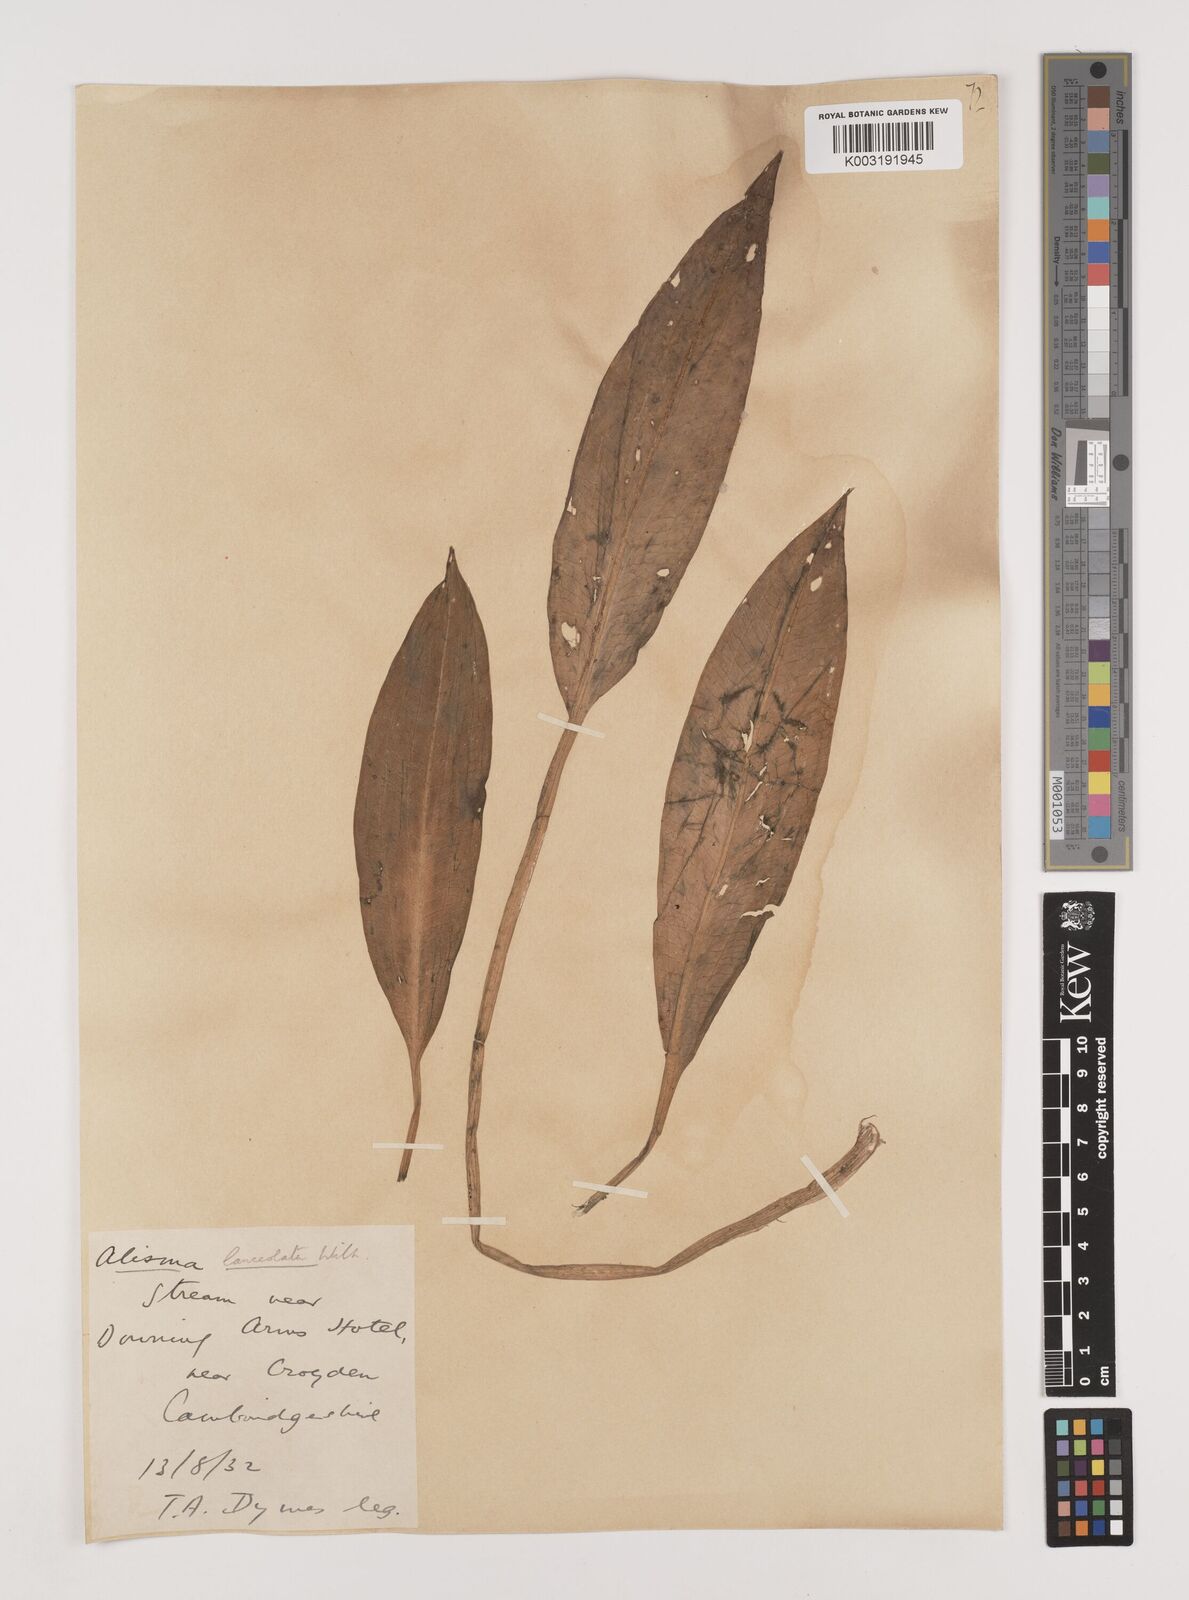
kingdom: Plantae
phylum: Tracheophyta
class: Liliopsida
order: Alismatales
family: Alismataceae
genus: Alisma
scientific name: Alisma lanceolatum
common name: Narrow-leaved water-plantain
